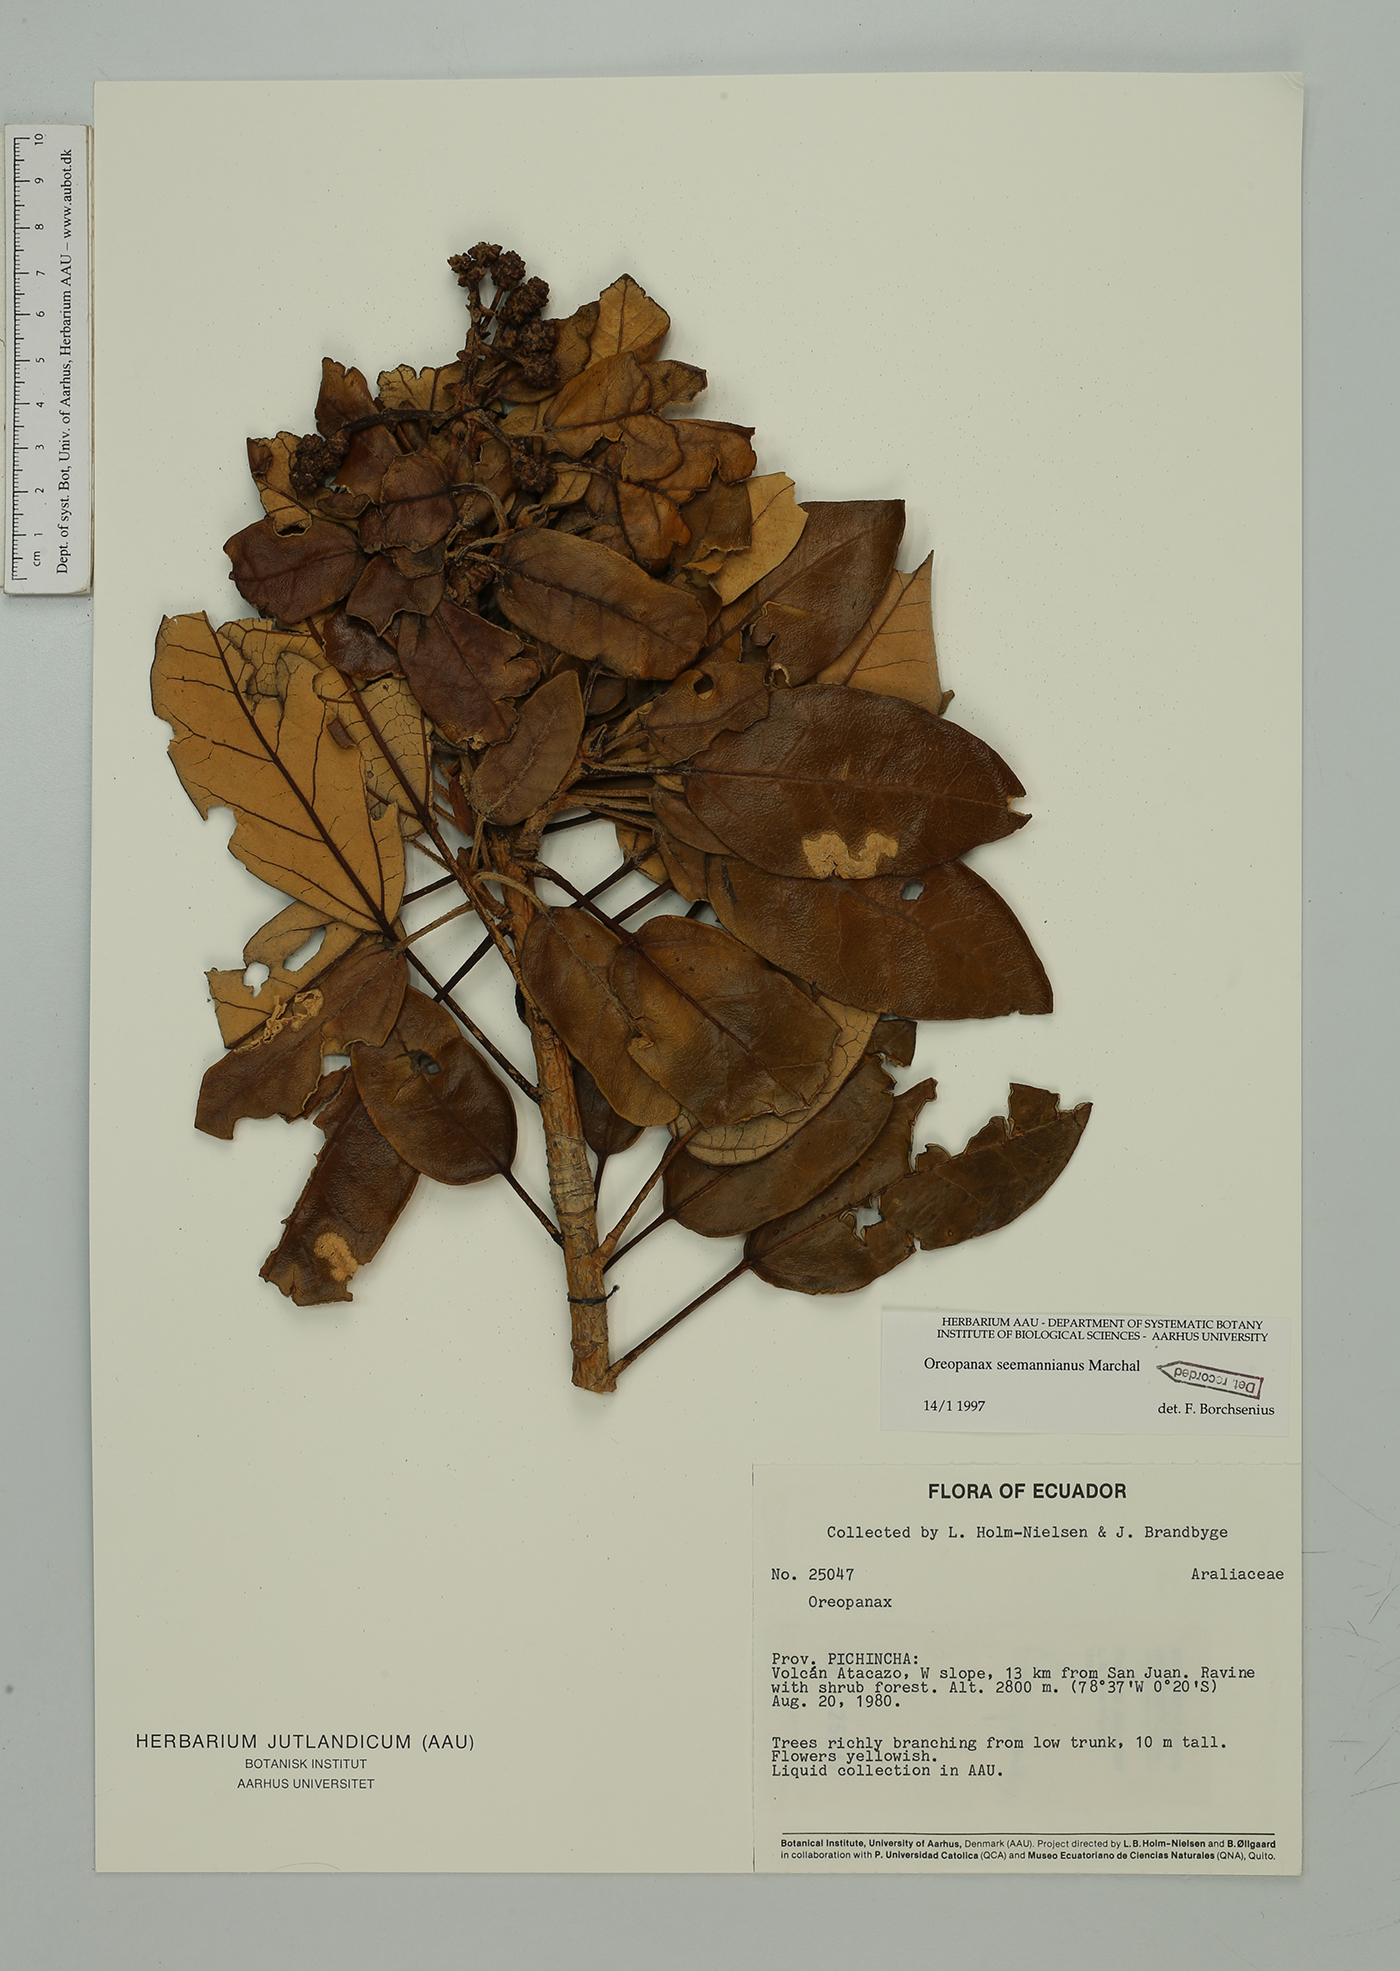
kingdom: Plantae
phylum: Tracheophyta
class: Magnoliopsida
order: Apiales
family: Araliaceae
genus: Oreopanax
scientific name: Oreopanax seemannianus
